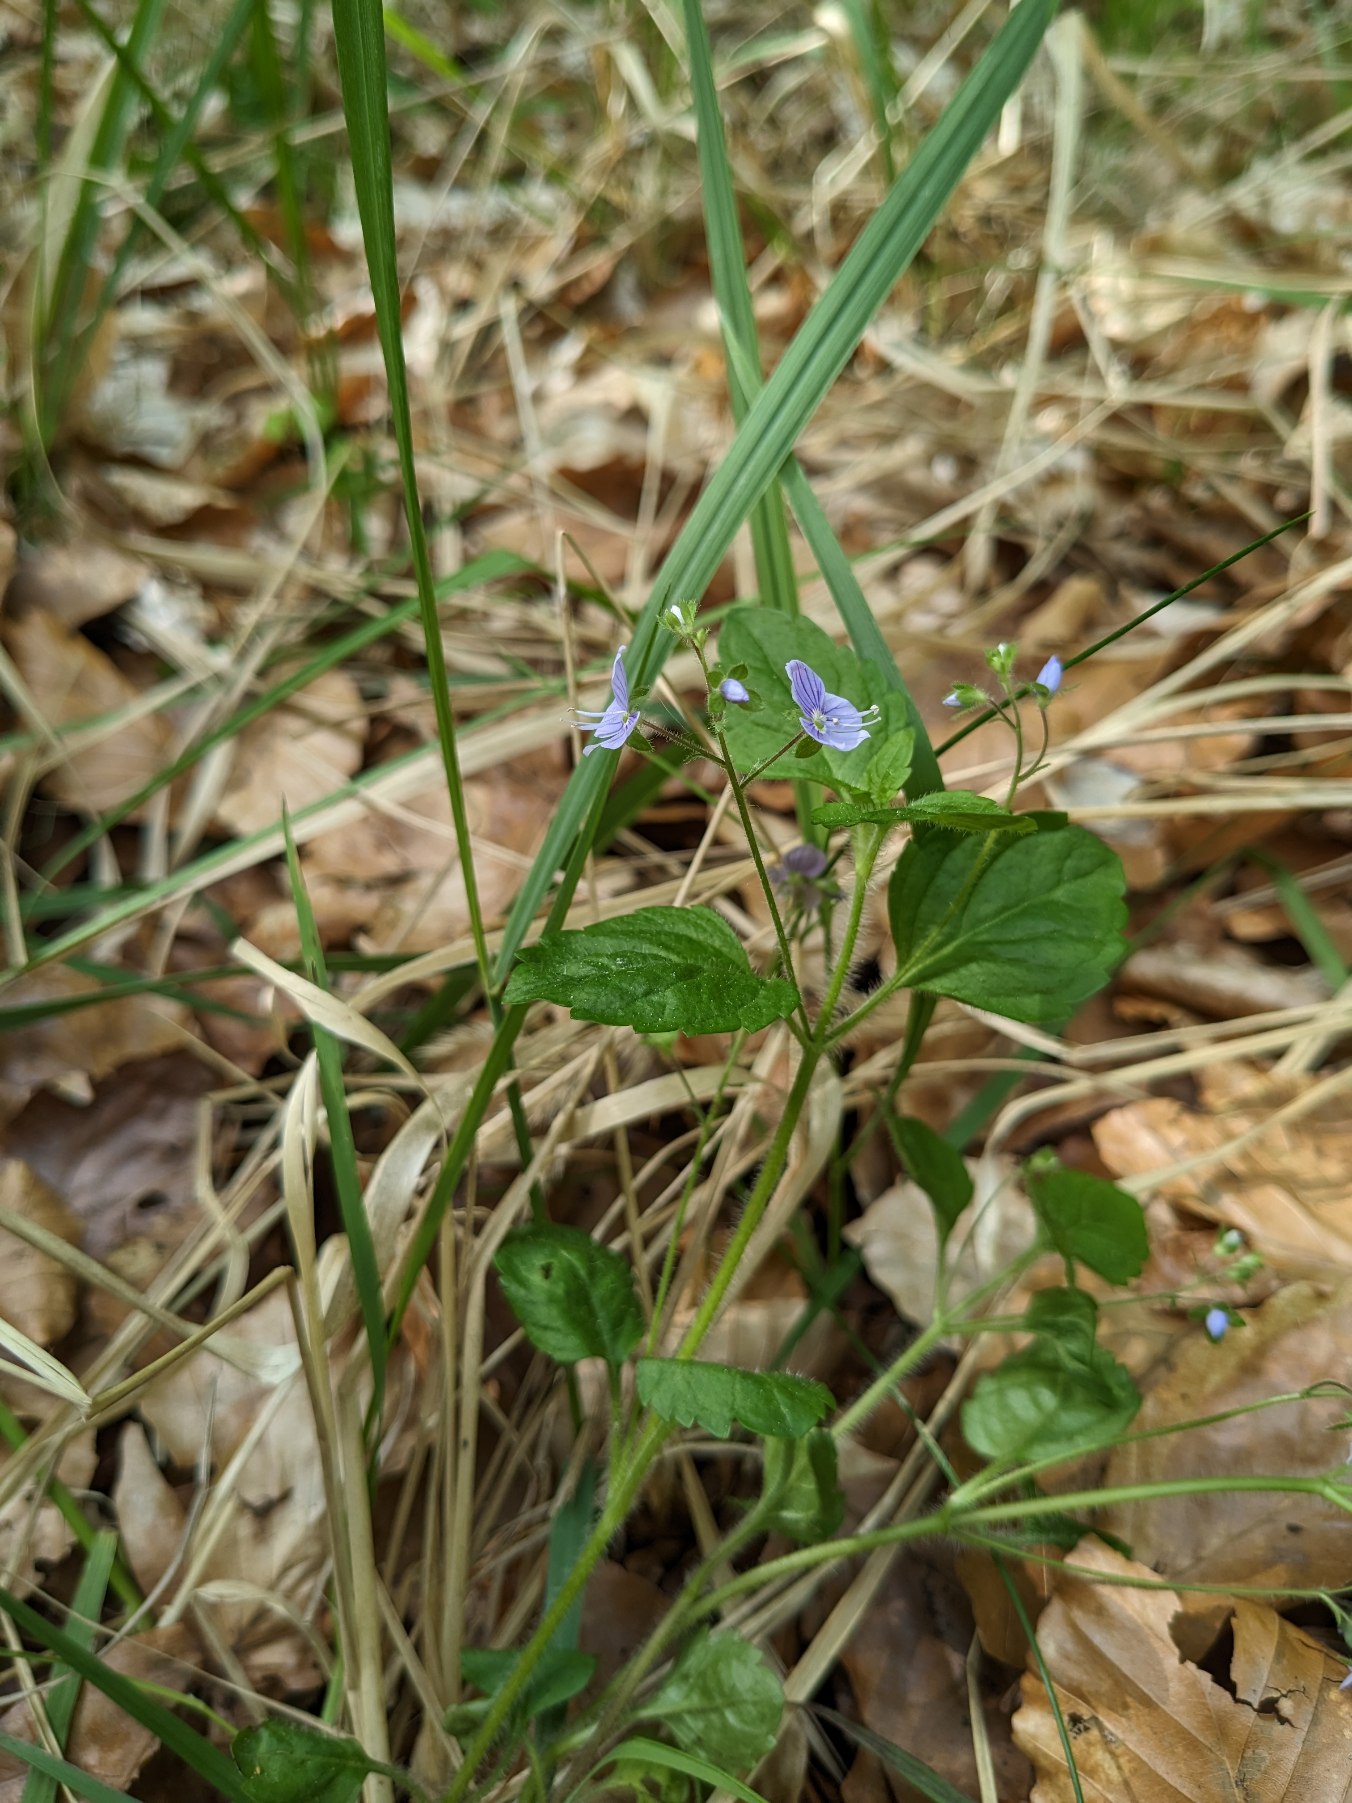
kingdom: Plantae
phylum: Tracheophyta
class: Magnoliopsida
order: Lamiales
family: Plantaginaceae
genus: Veronica
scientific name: Veronica montana
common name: Bjerg-ærenpris
